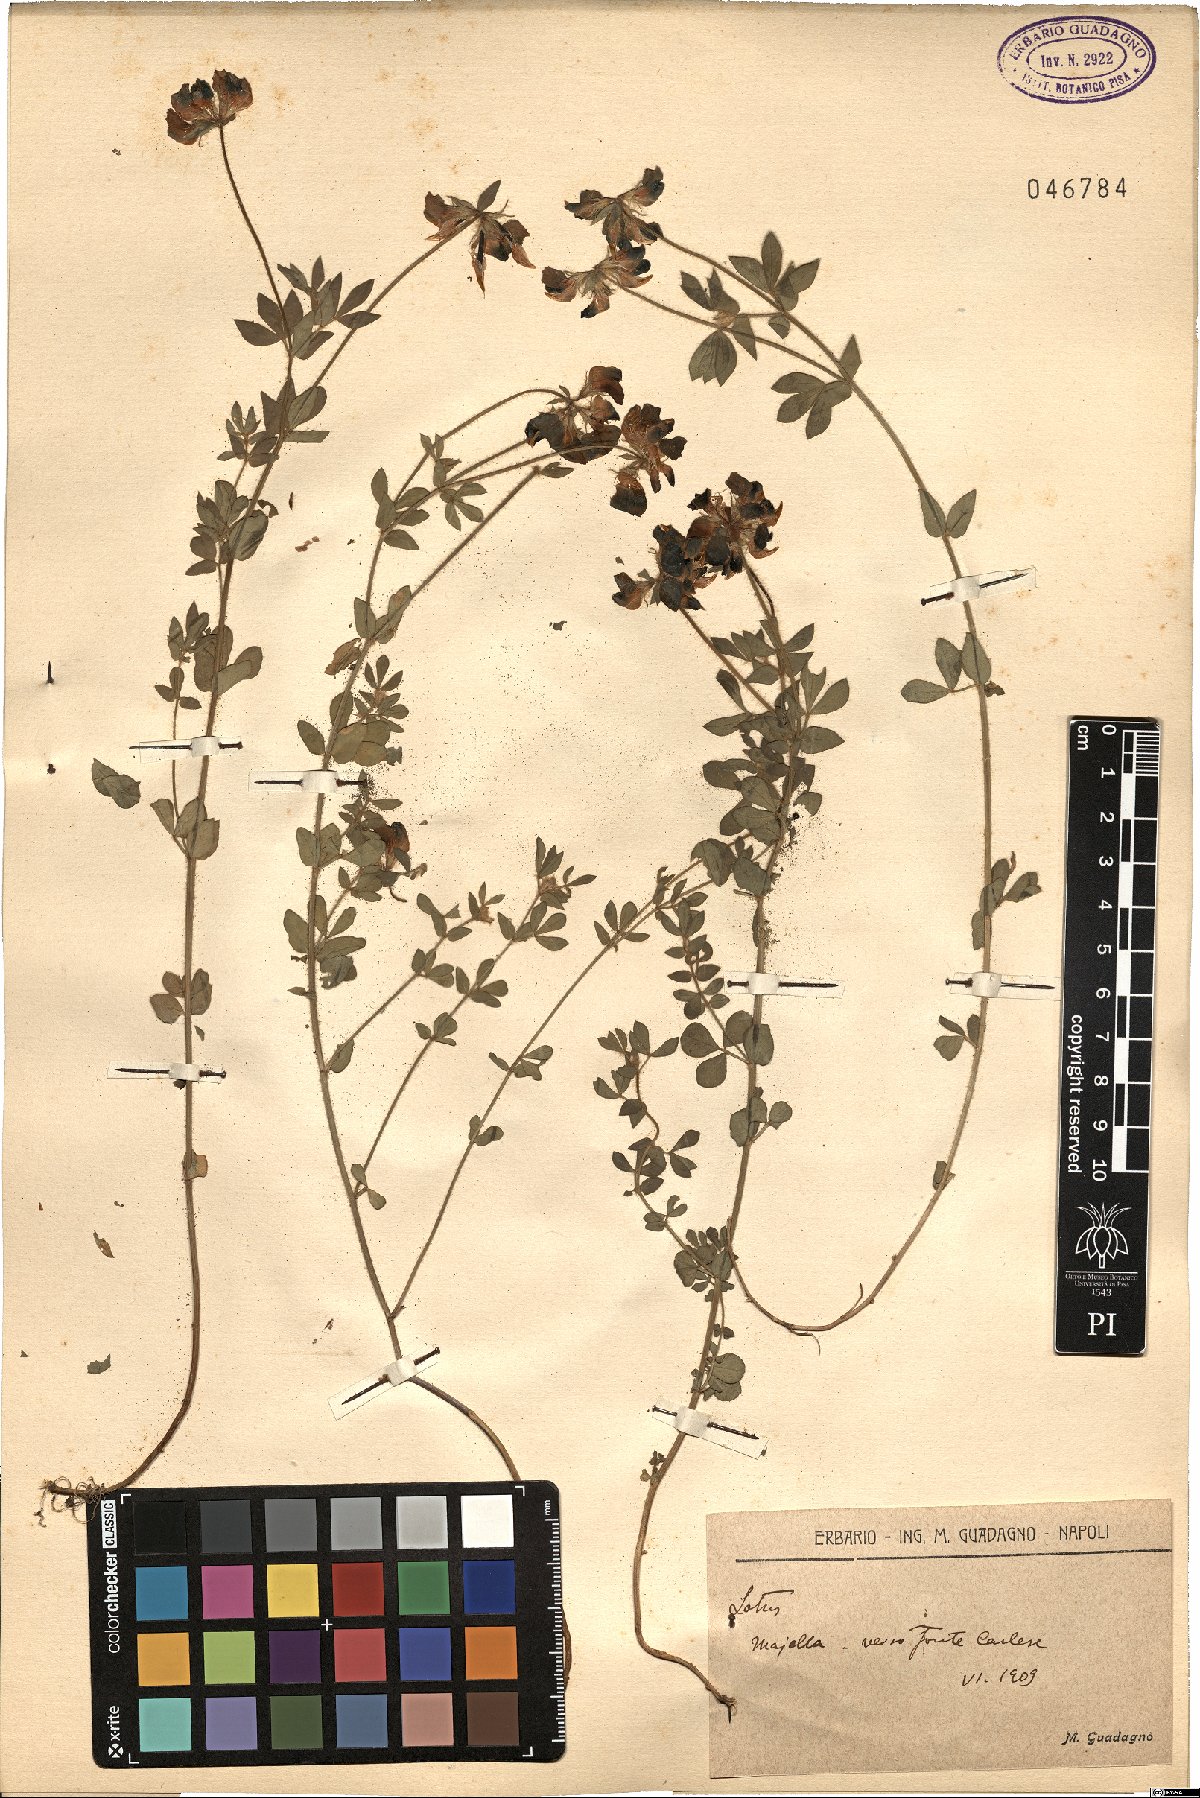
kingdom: Plantae
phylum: Tracheophyta
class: Magnoliopsida
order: Fabales
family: Fabaceae
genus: Lotus
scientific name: Lotus
